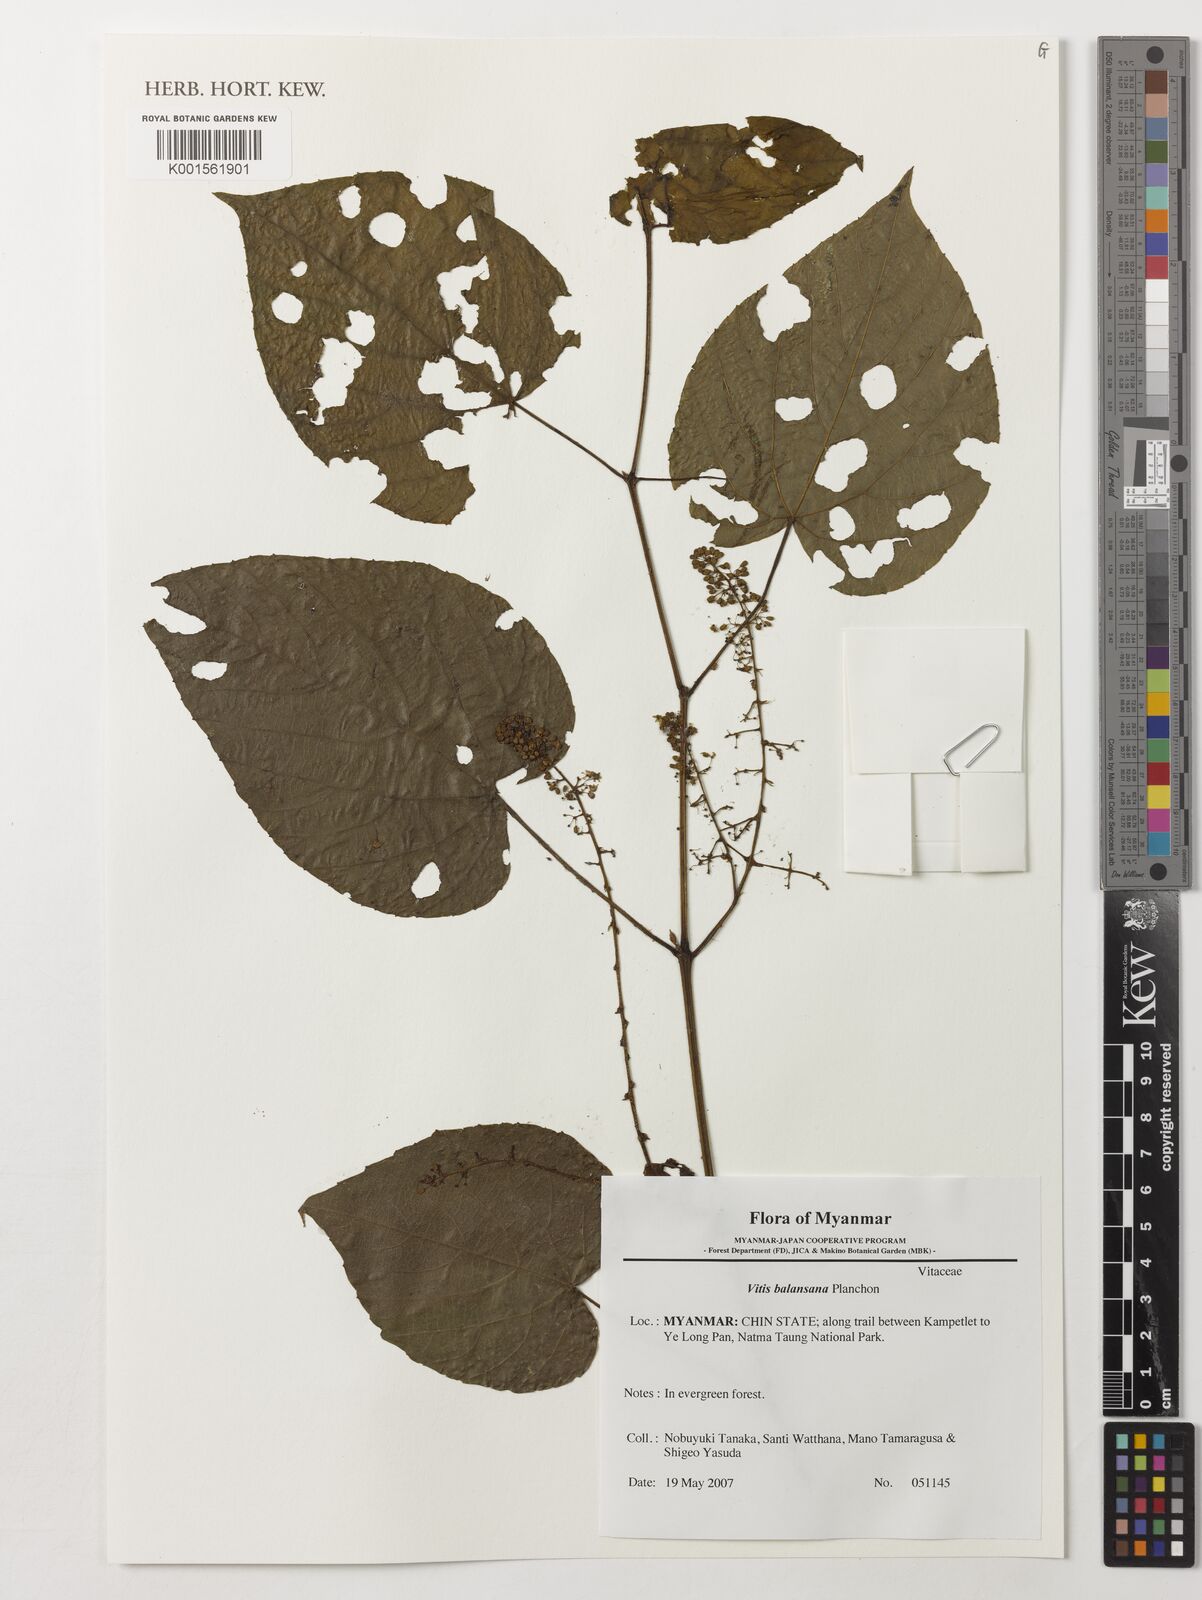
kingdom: Plantae
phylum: Tracheophyta
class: Magnoliopsida
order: Vitales
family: Vitaceae
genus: Vitis
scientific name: Vitis balansana
